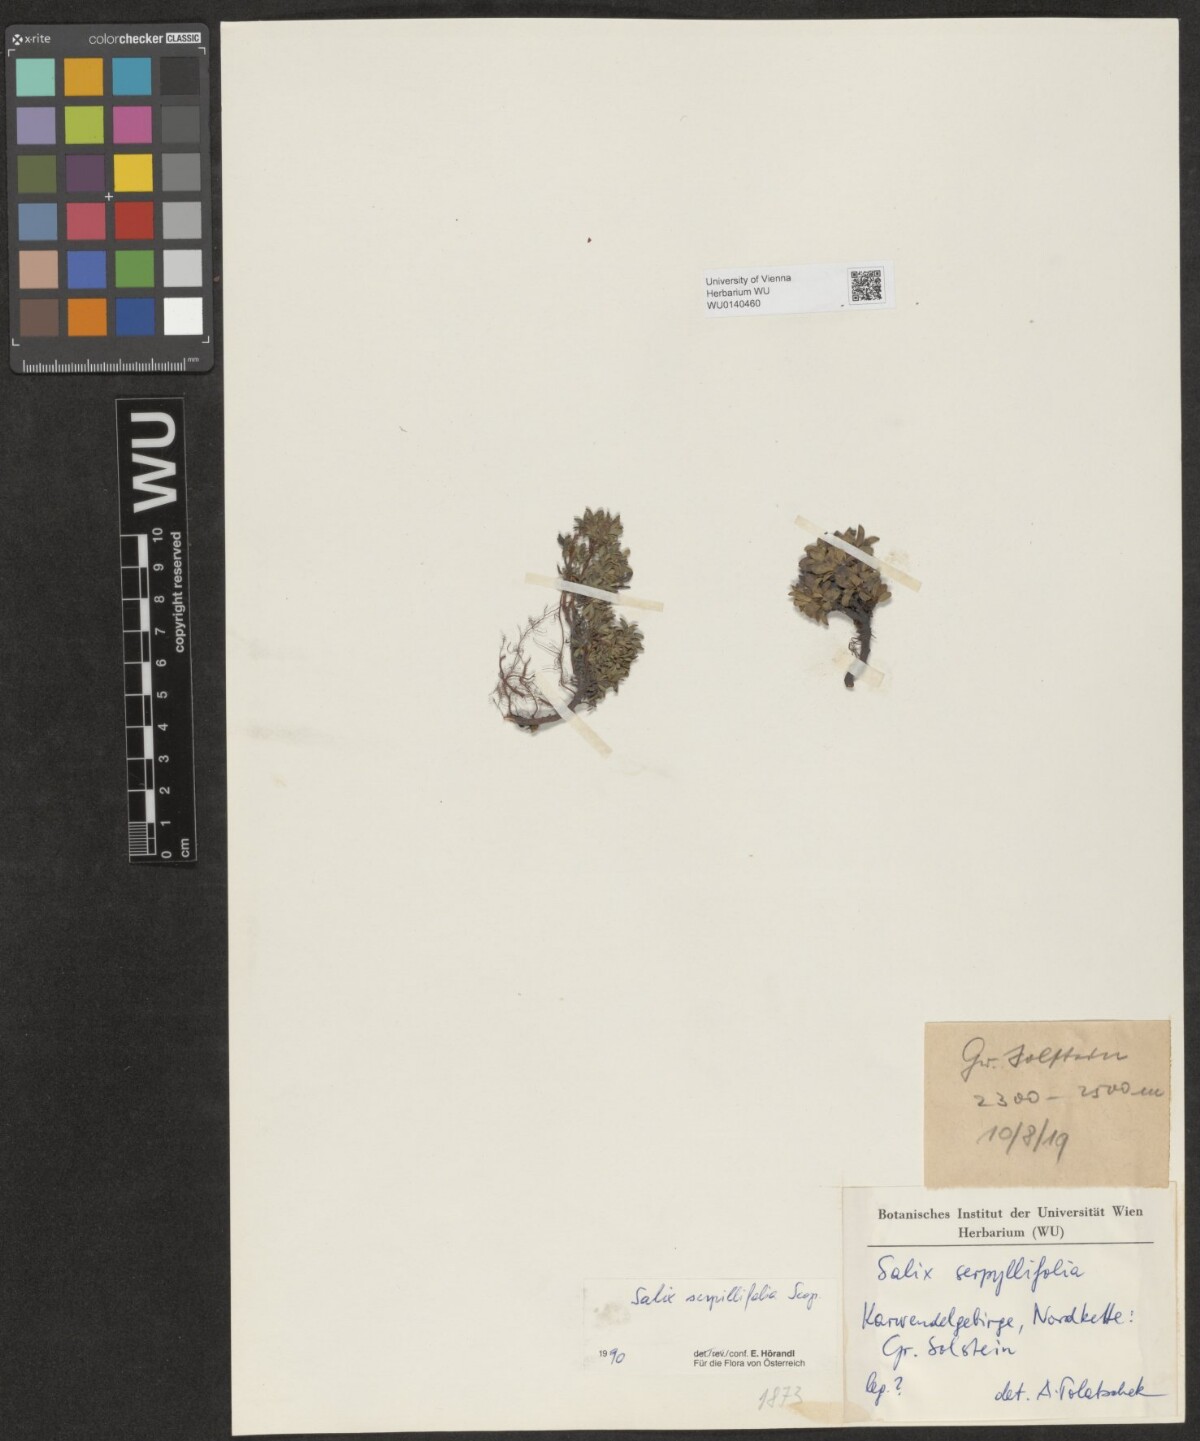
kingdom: Plantae
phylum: Tracheophyta
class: Magnoliopsida
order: Malpighiales
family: Salicaceae
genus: Salix
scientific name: Salix serpillifolia
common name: Thyme-leaf willow
